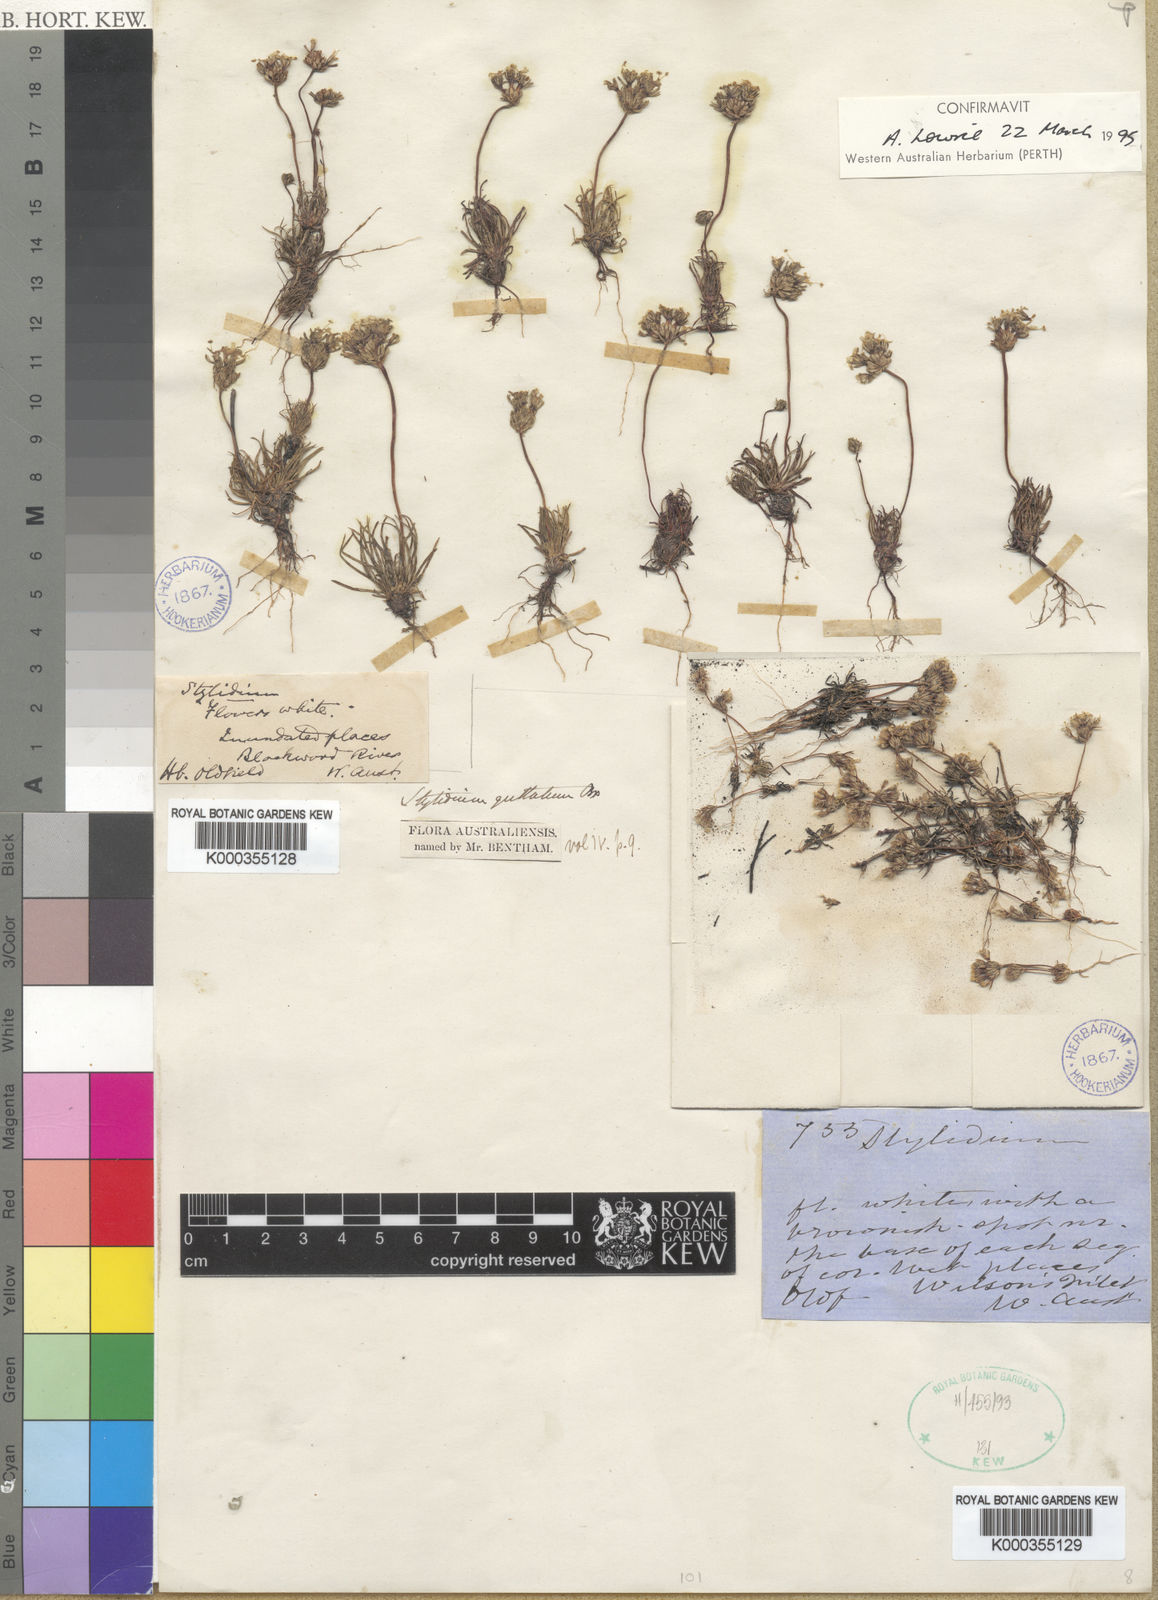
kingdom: Plantae
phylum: Tracheophyta
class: Magnoliopsida
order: Asterales
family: Stylidiaceae
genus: Stylidium
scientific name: Stylidium guttatum
